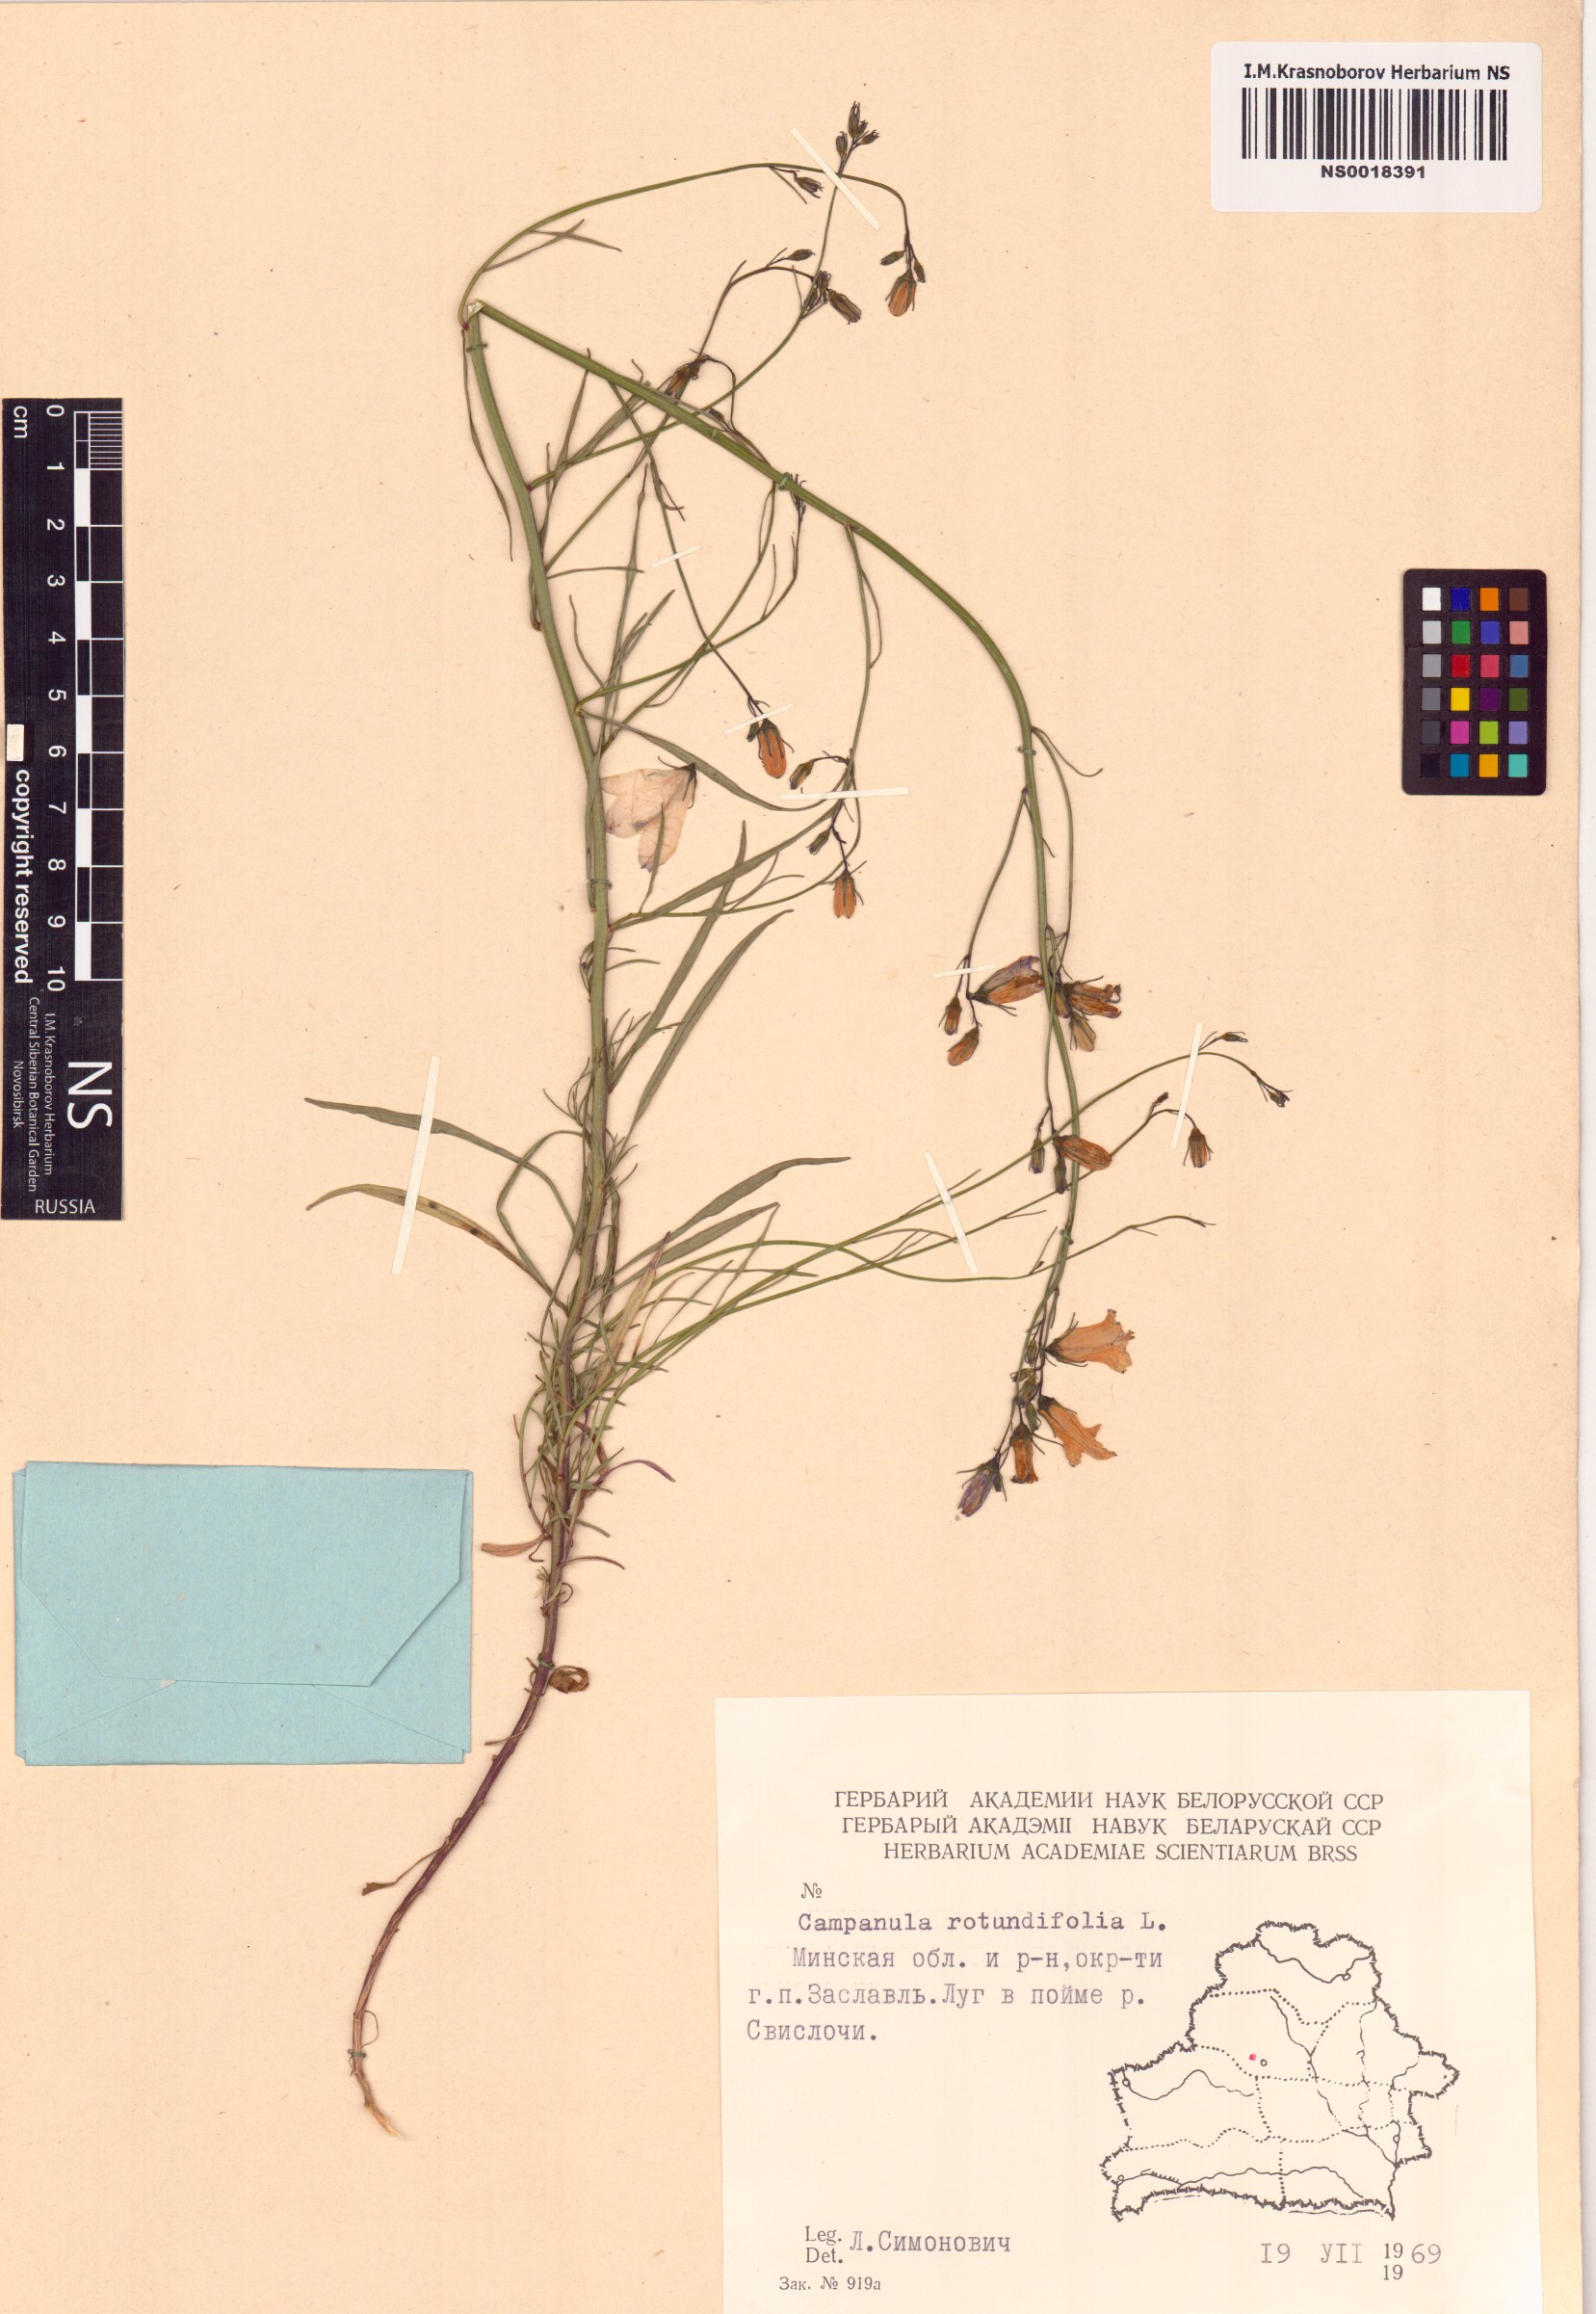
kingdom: Plantae
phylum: Tracheophyta
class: Magnoliopsida
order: Asterales
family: Campanulaceae
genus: Campanula
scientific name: Campanula rotundifolia
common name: Harebell
